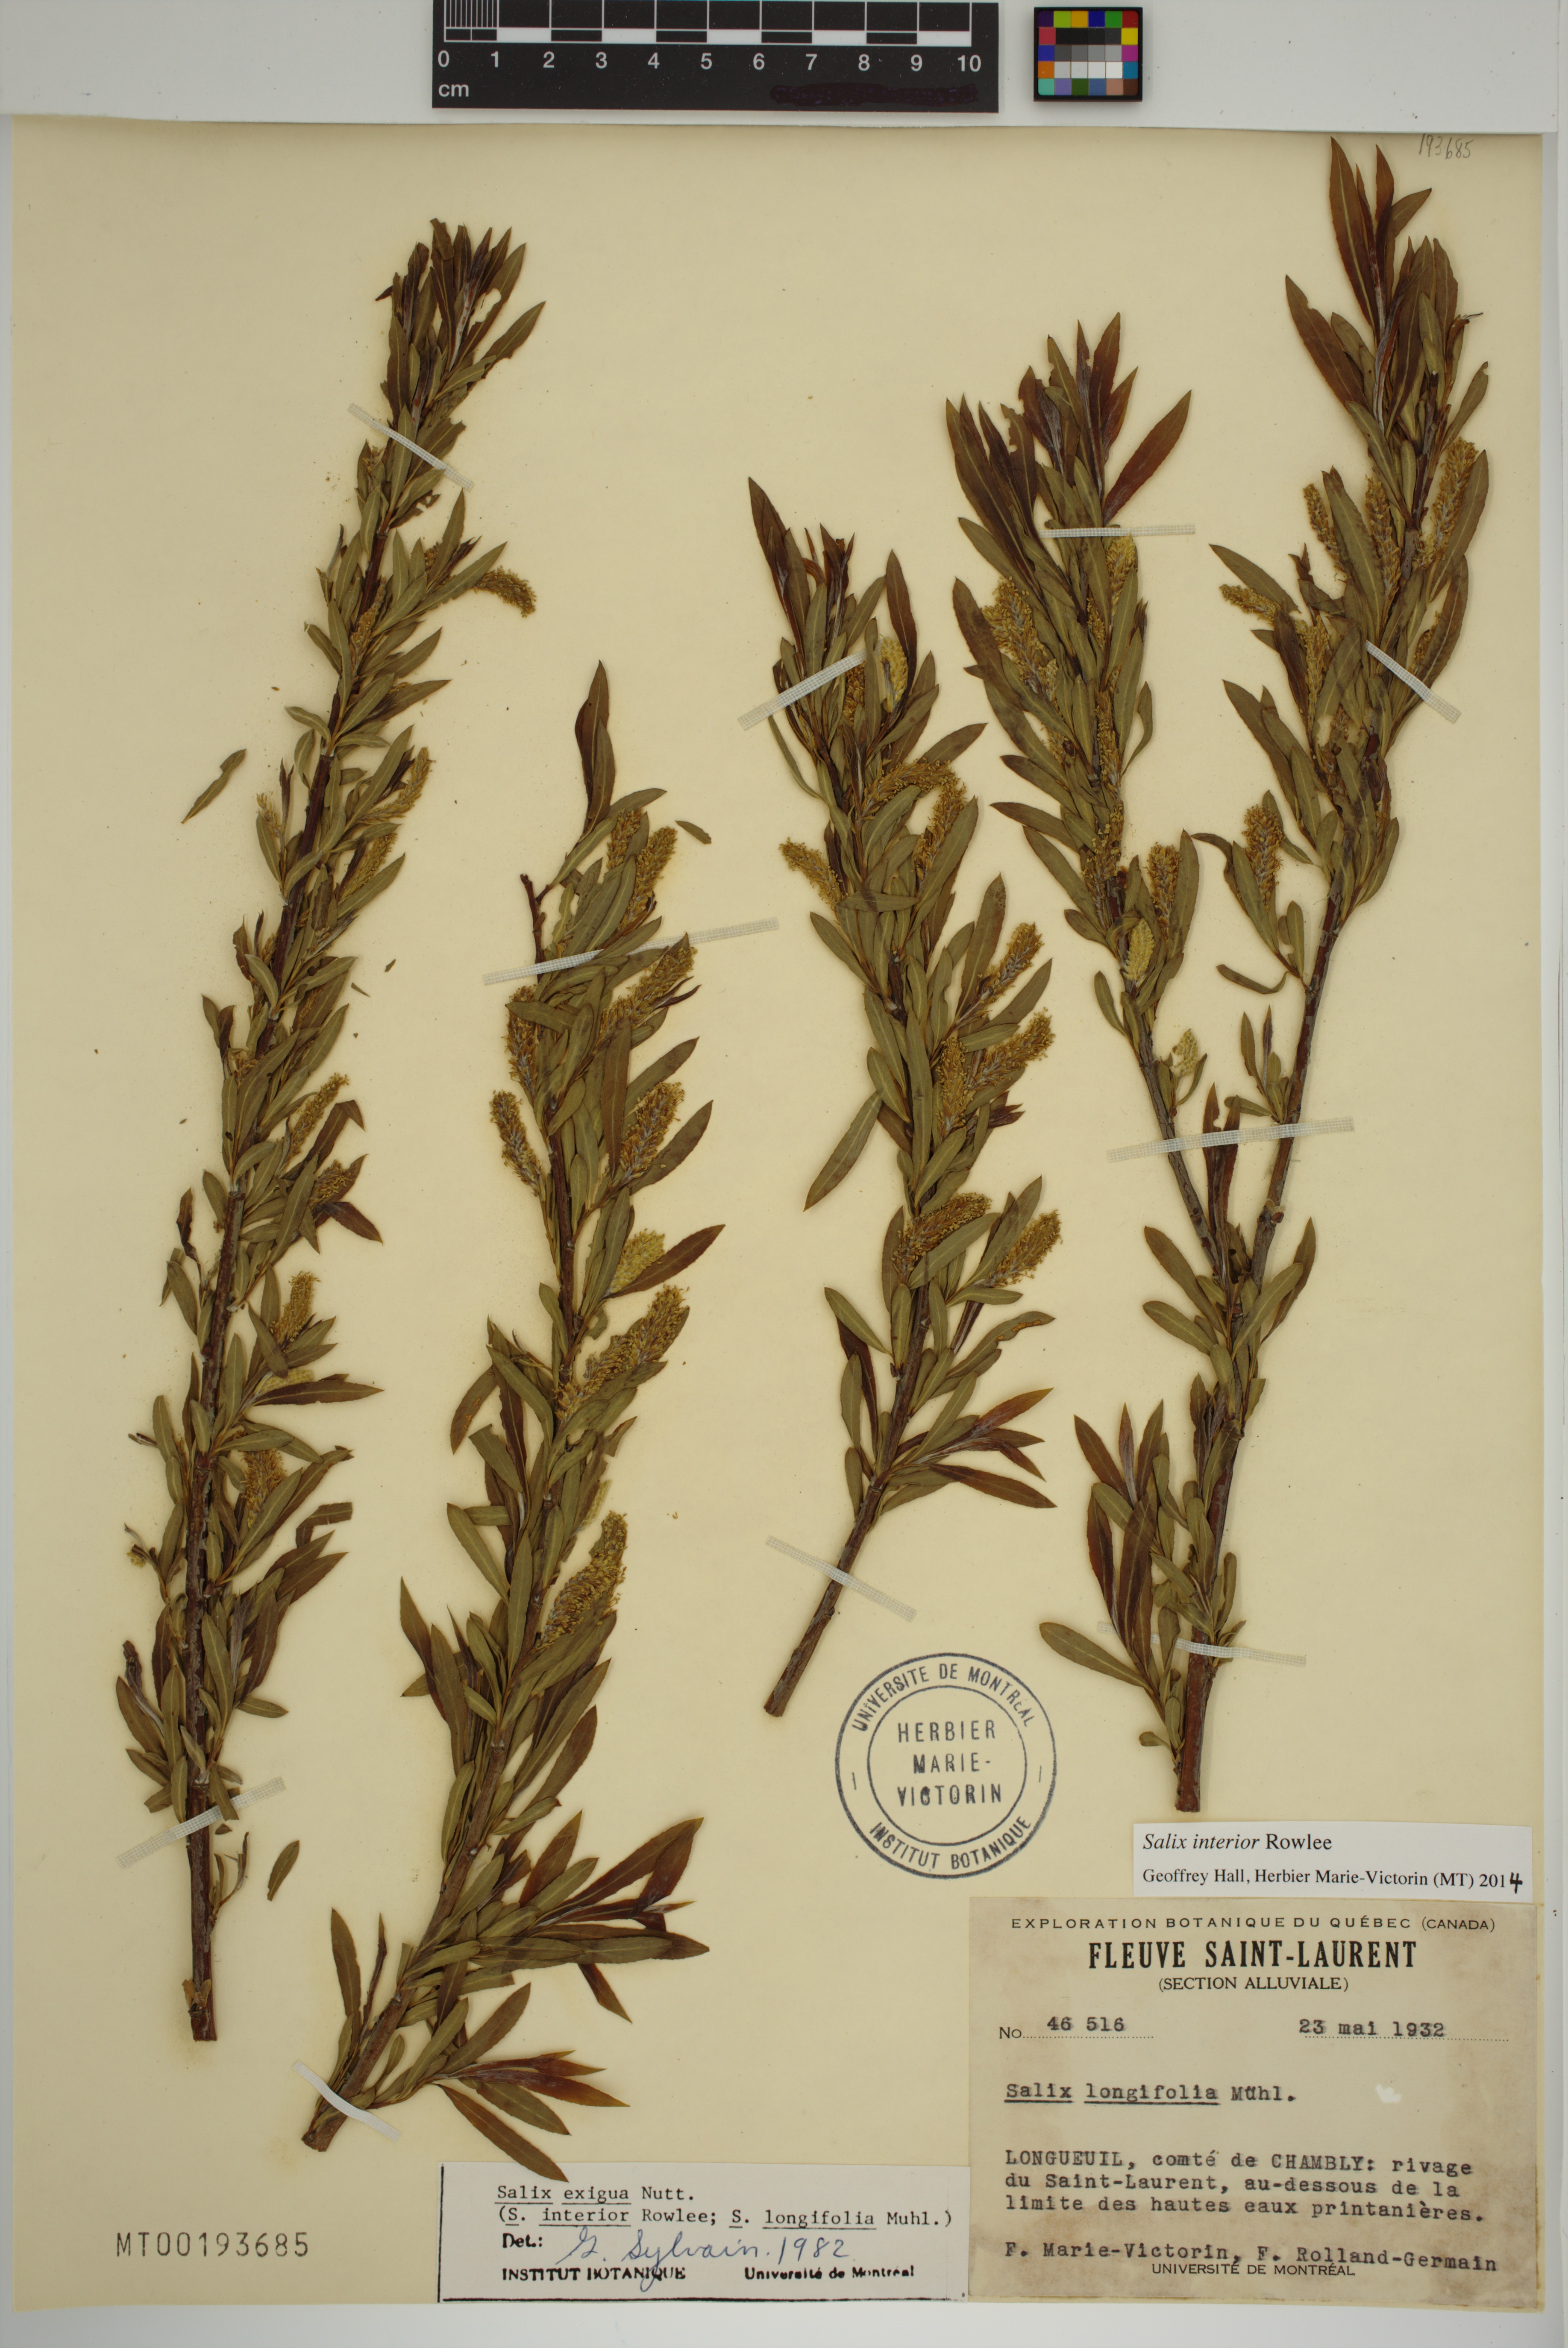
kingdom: Plantae
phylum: Tracheophyta
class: Magnoliopsida
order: Malpighiales
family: Salicaceae
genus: Salix
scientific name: Salix interior
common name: Sandbar willow
